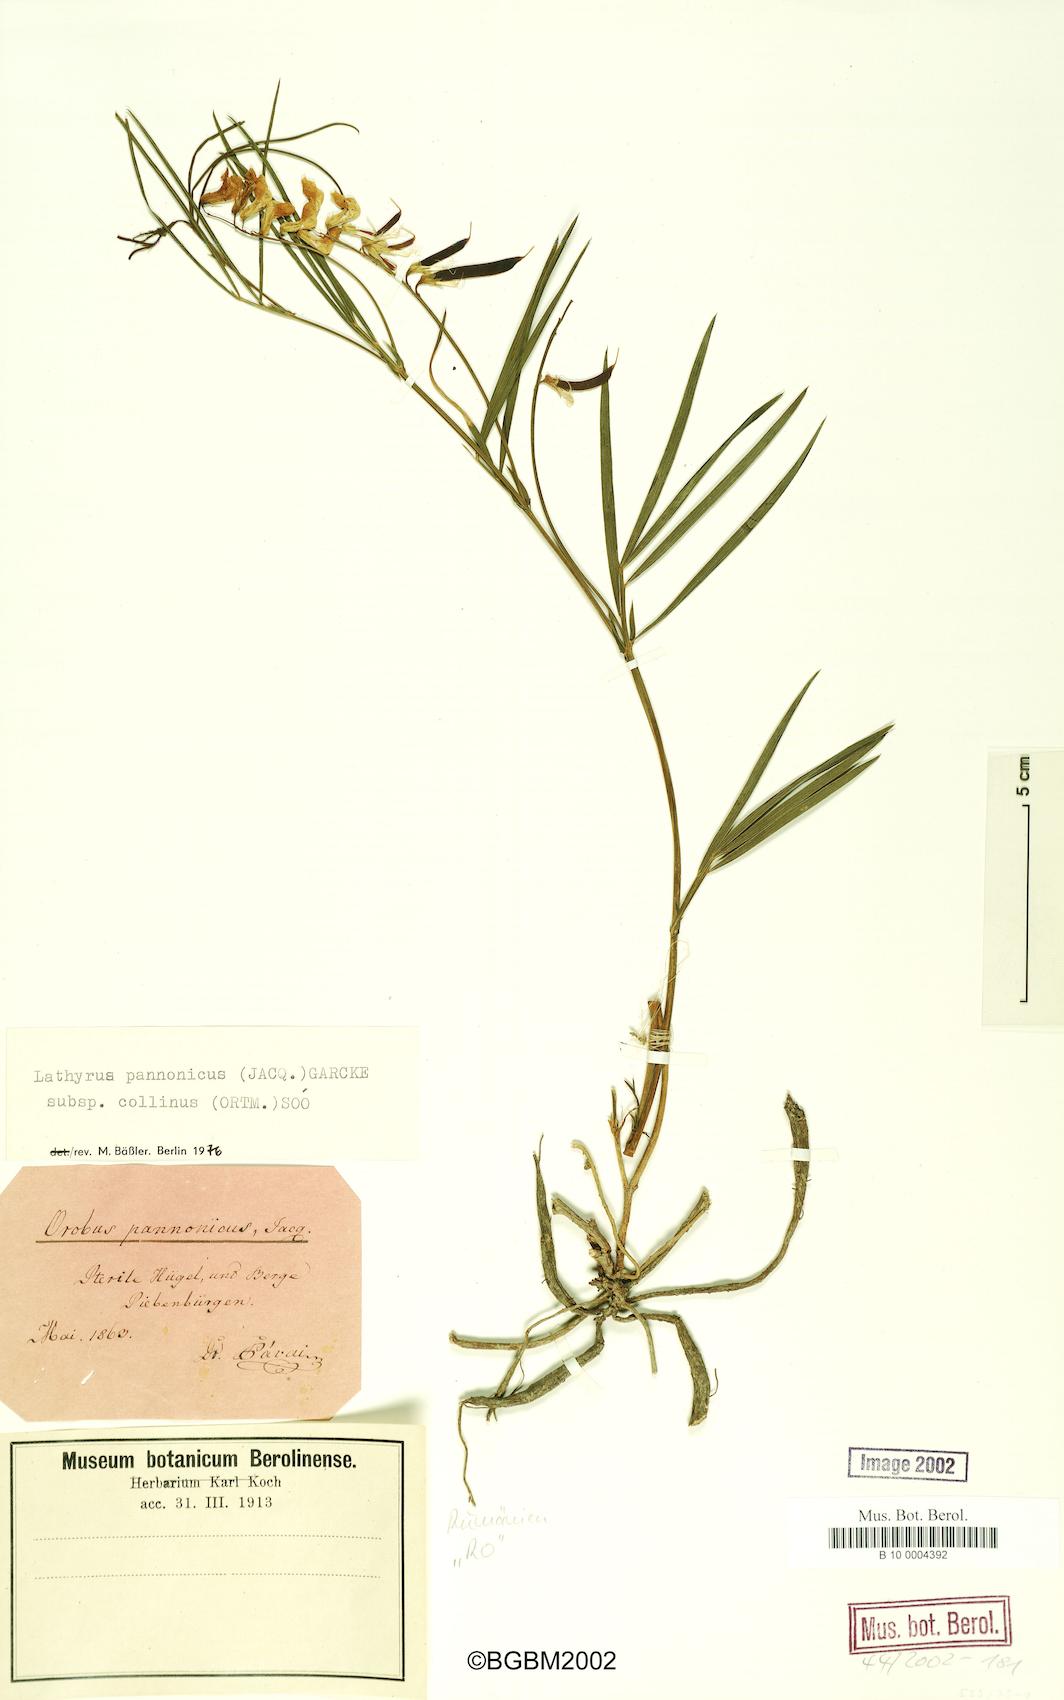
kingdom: Plantae
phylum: Tracheophyta
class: Magnoliopsida
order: Fabales
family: Fabaceae
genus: Lathyrus
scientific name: Lathyrus pannonicus
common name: Pea
